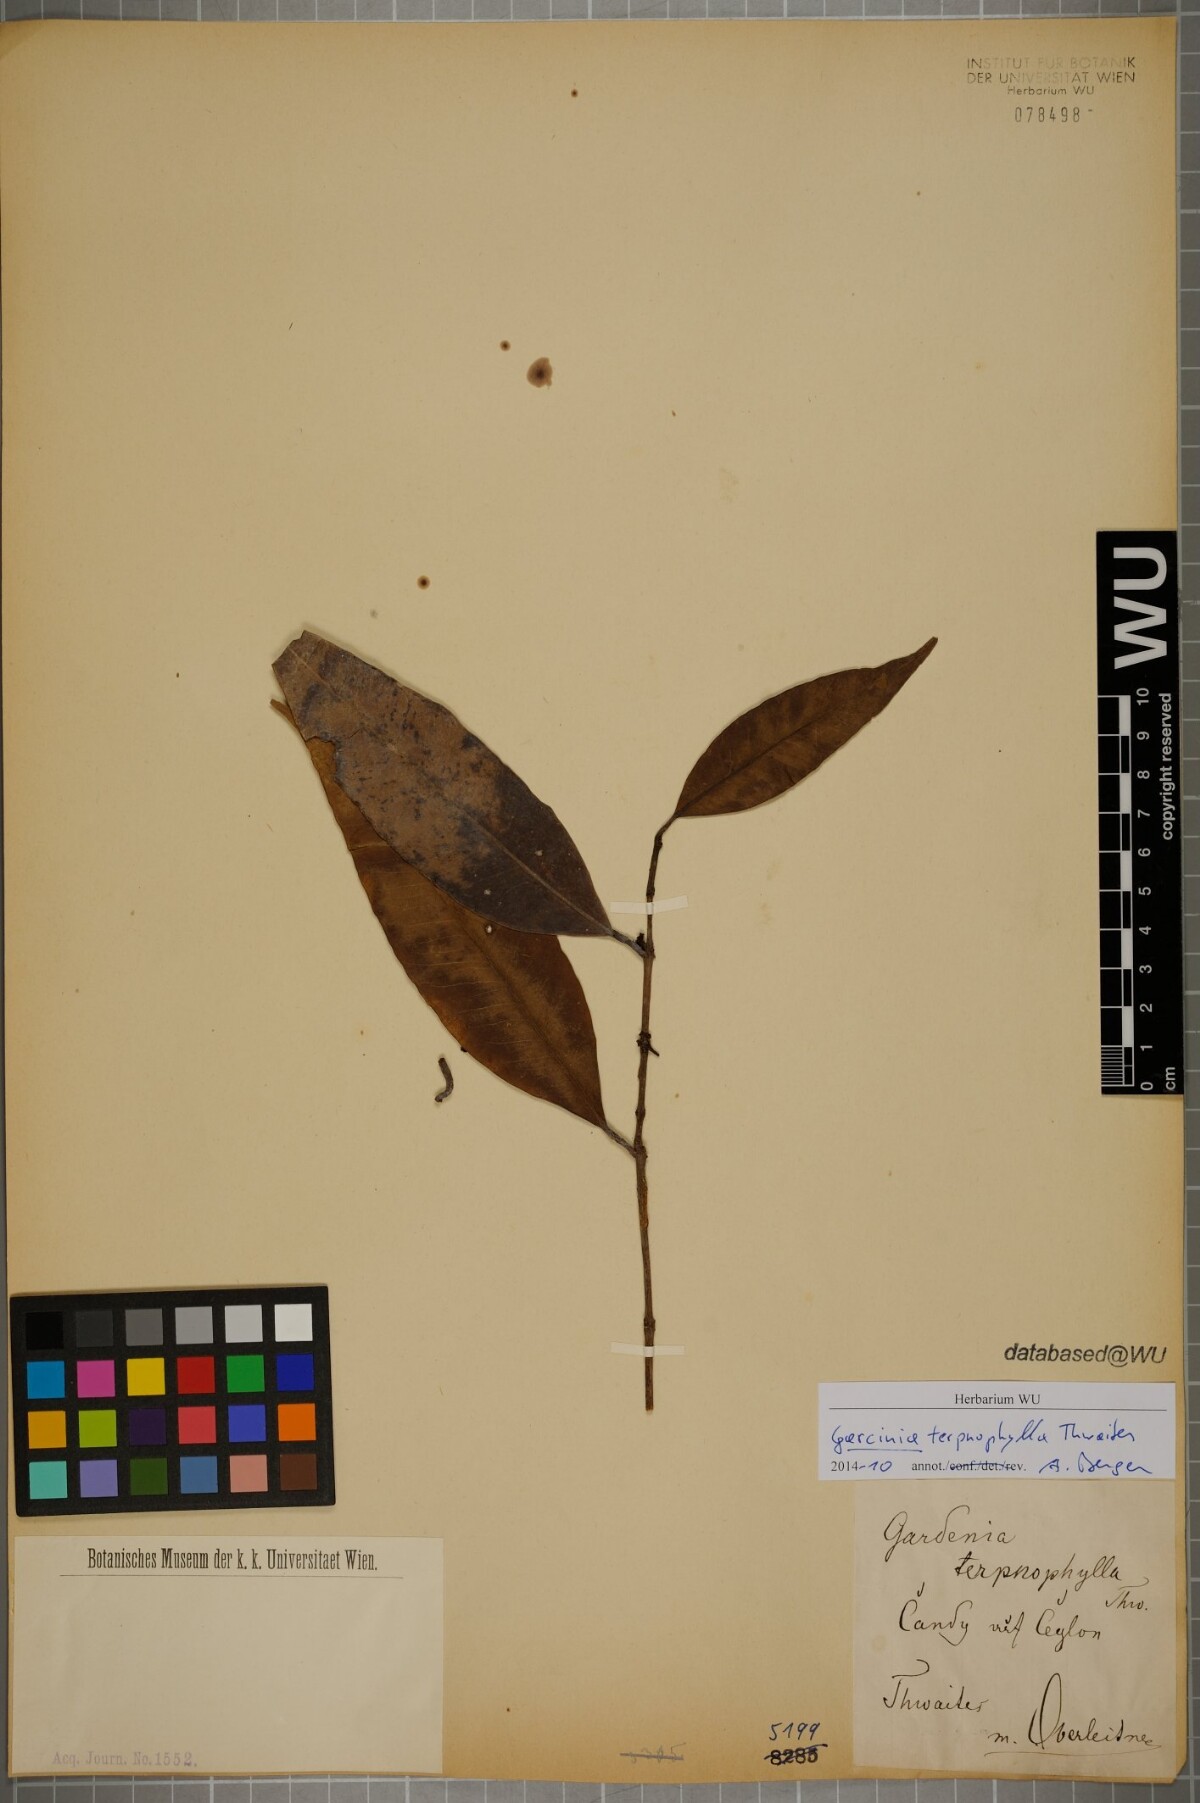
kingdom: Plantae
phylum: Tracheophyta
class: Magnoliopsida
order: Malpighiales
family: Clusiaceae
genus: Garcinia
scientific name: Garcinia terpnophylla
